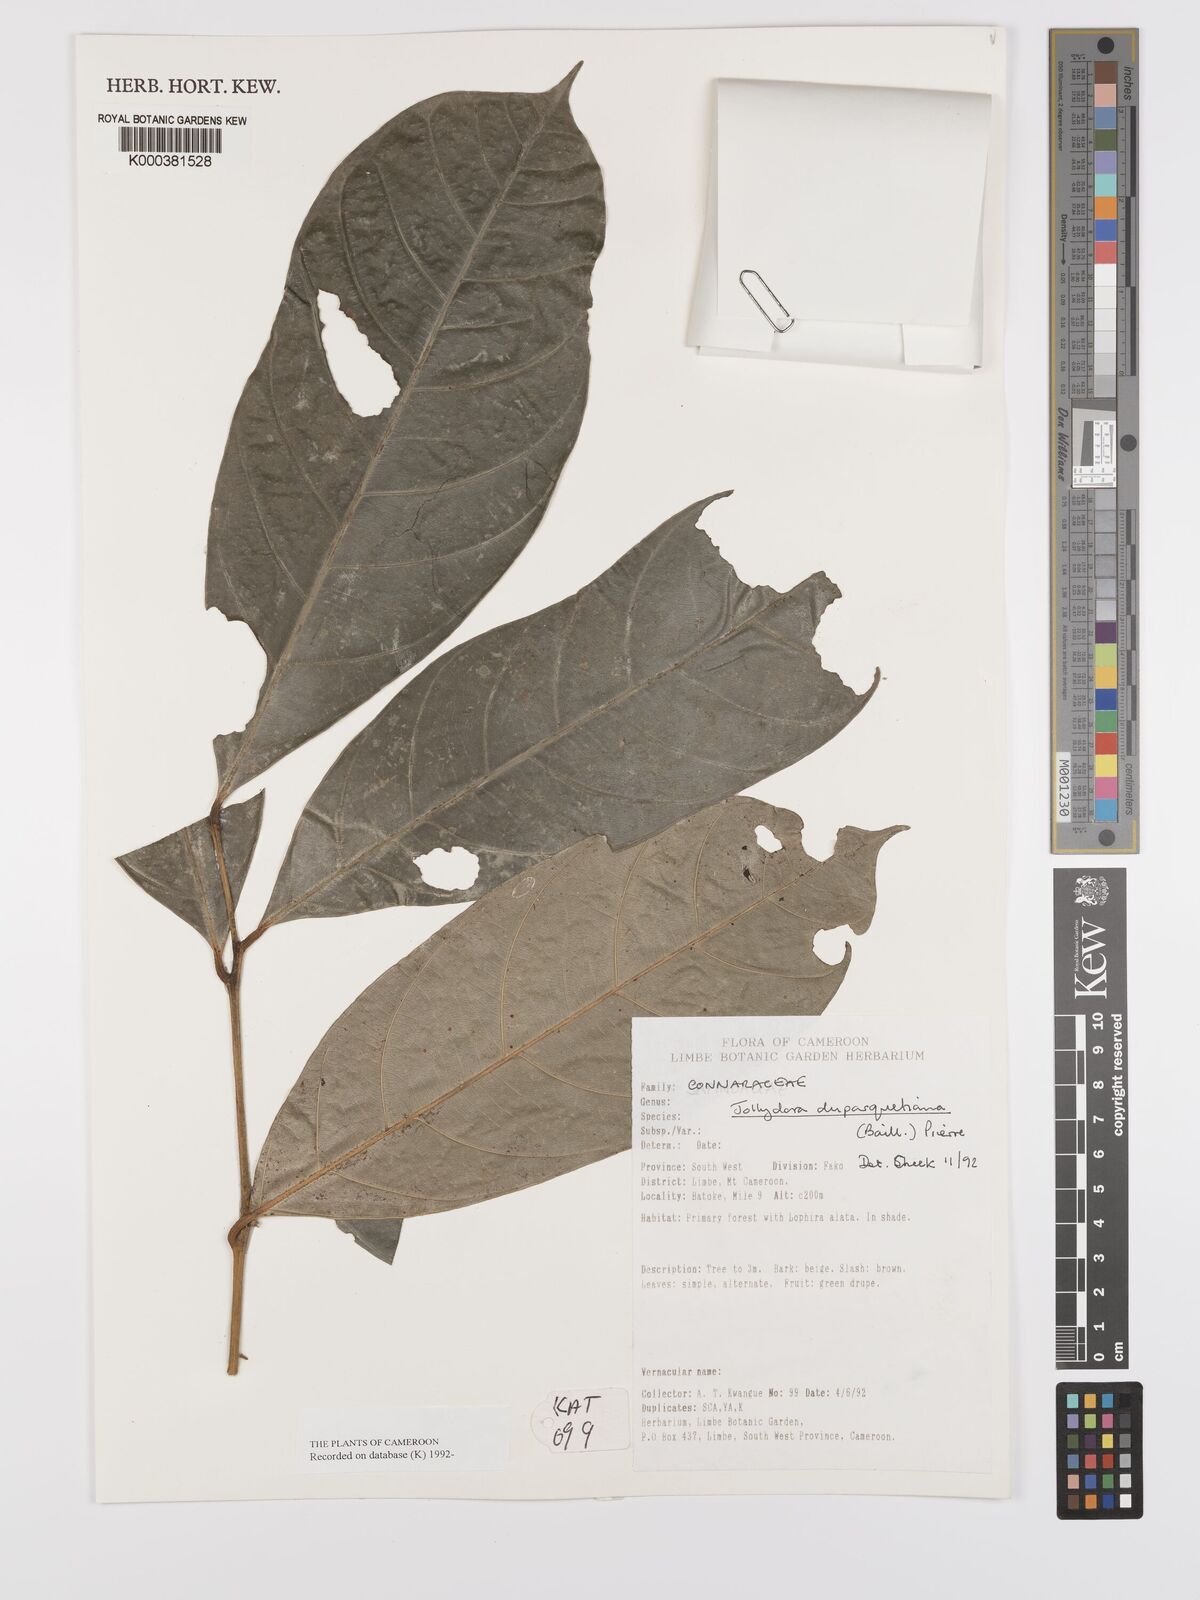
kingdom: Plantae
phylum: Tracheophyta
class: Magnoliopsida
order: Oxalidales
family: Connaraceae
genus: Jollydora
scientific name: Jollydora duparquetiana
